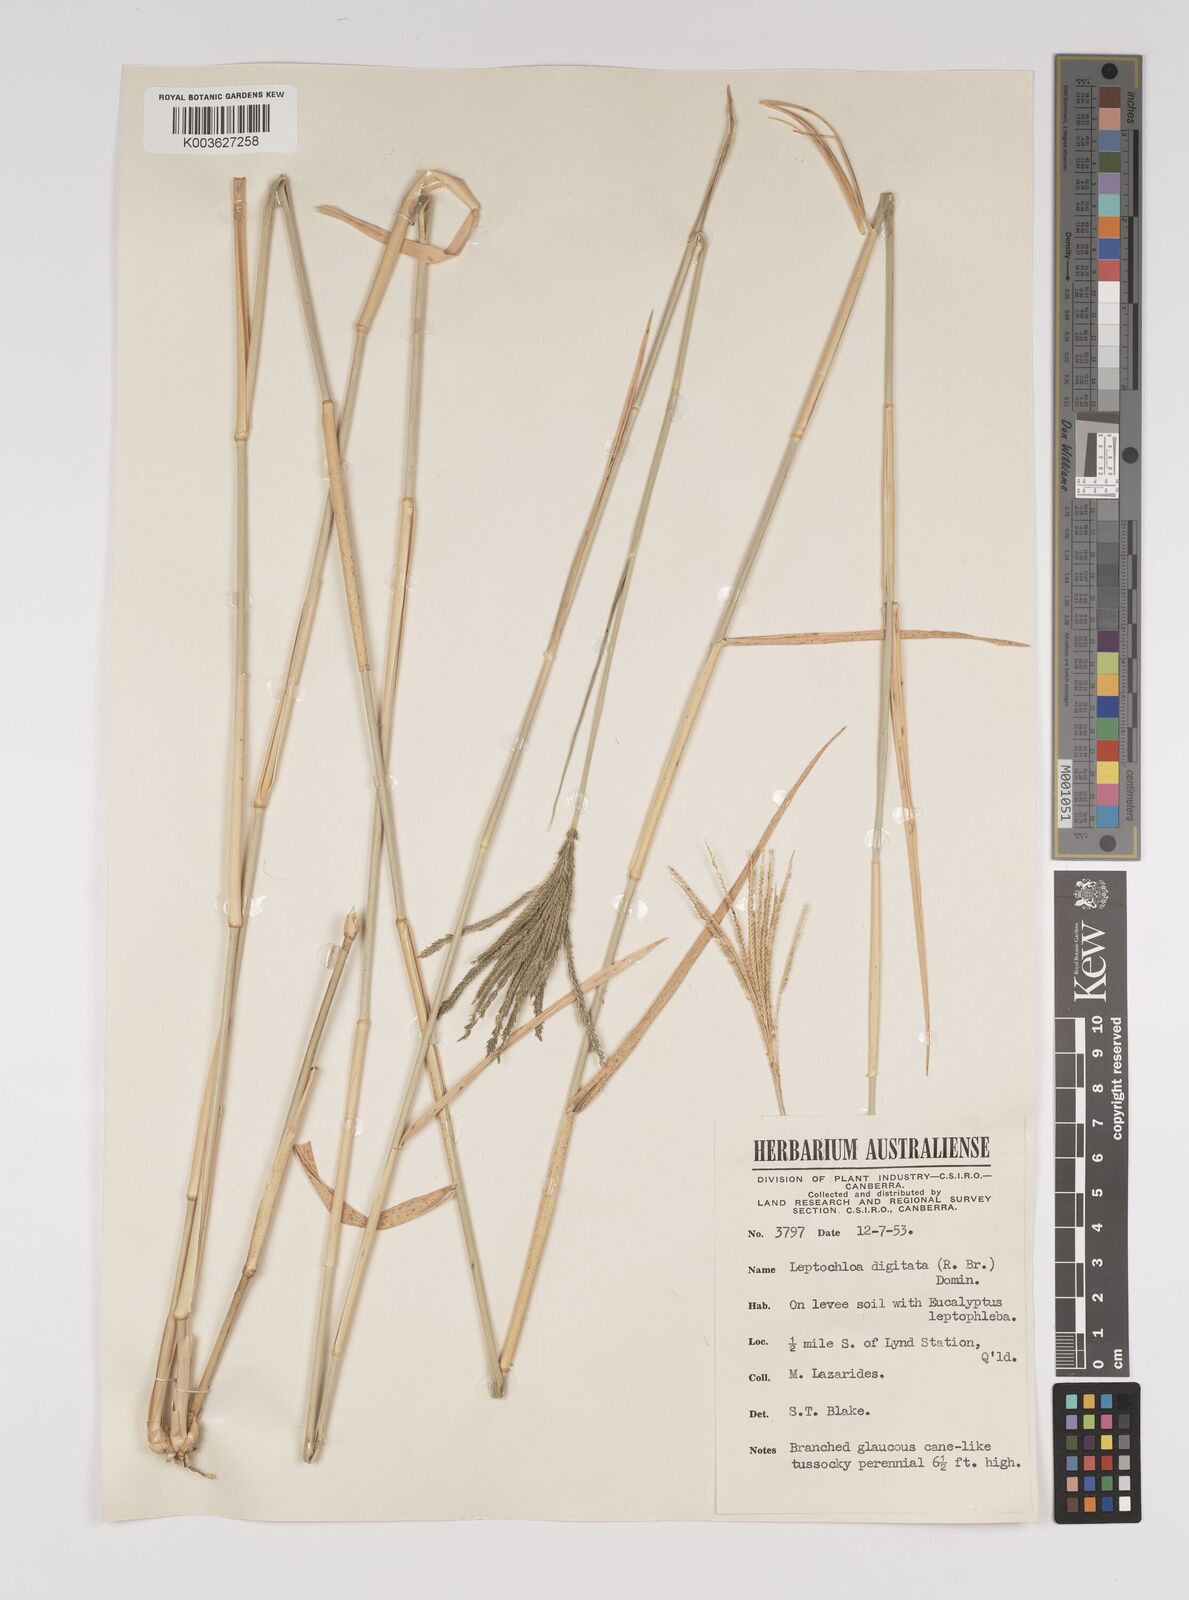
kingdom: Plantae
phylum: Tracheophyta
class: Liliopsida
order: Poales
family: Poaceae
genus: Leptochloa
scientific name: Leptochloa digitata
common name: Finger sprangletop
